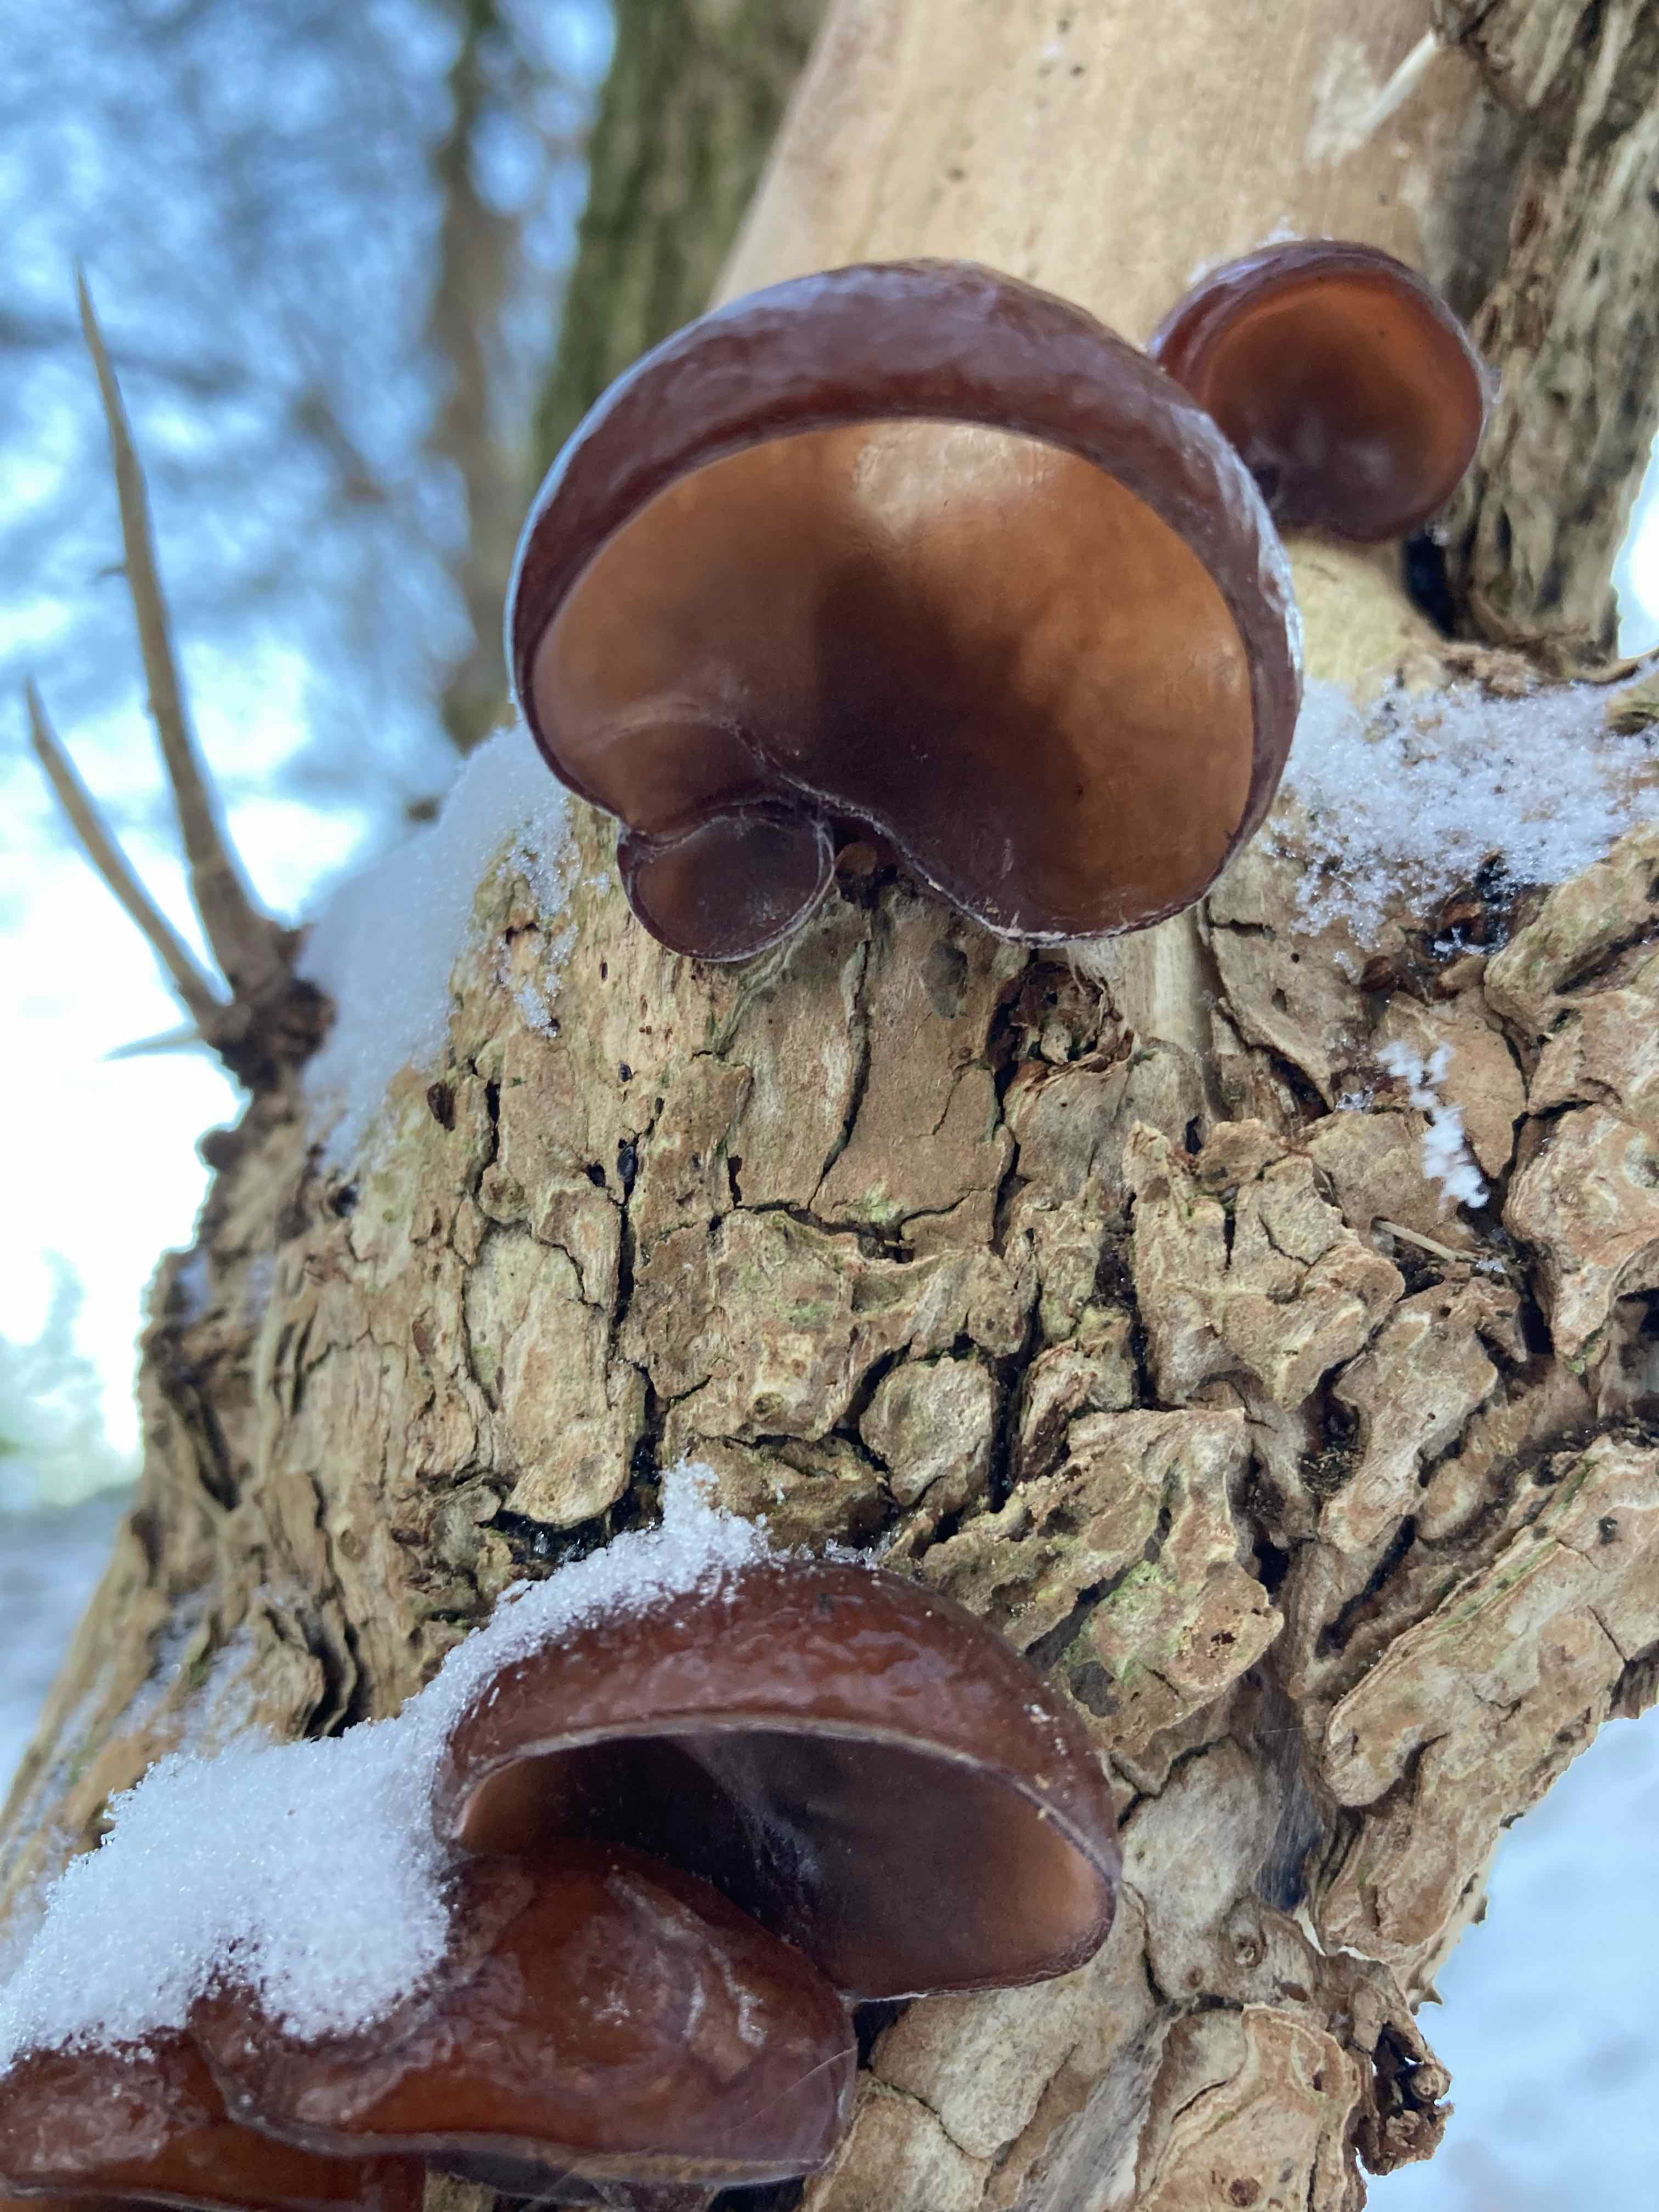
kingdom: Fungi
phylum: Basidiomycota
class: Agaricomycetes
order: Auriculariales
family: Auriculariaceae
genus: Auricularia
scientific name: Auricularia auricula-judae
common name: almindelig judasøre
